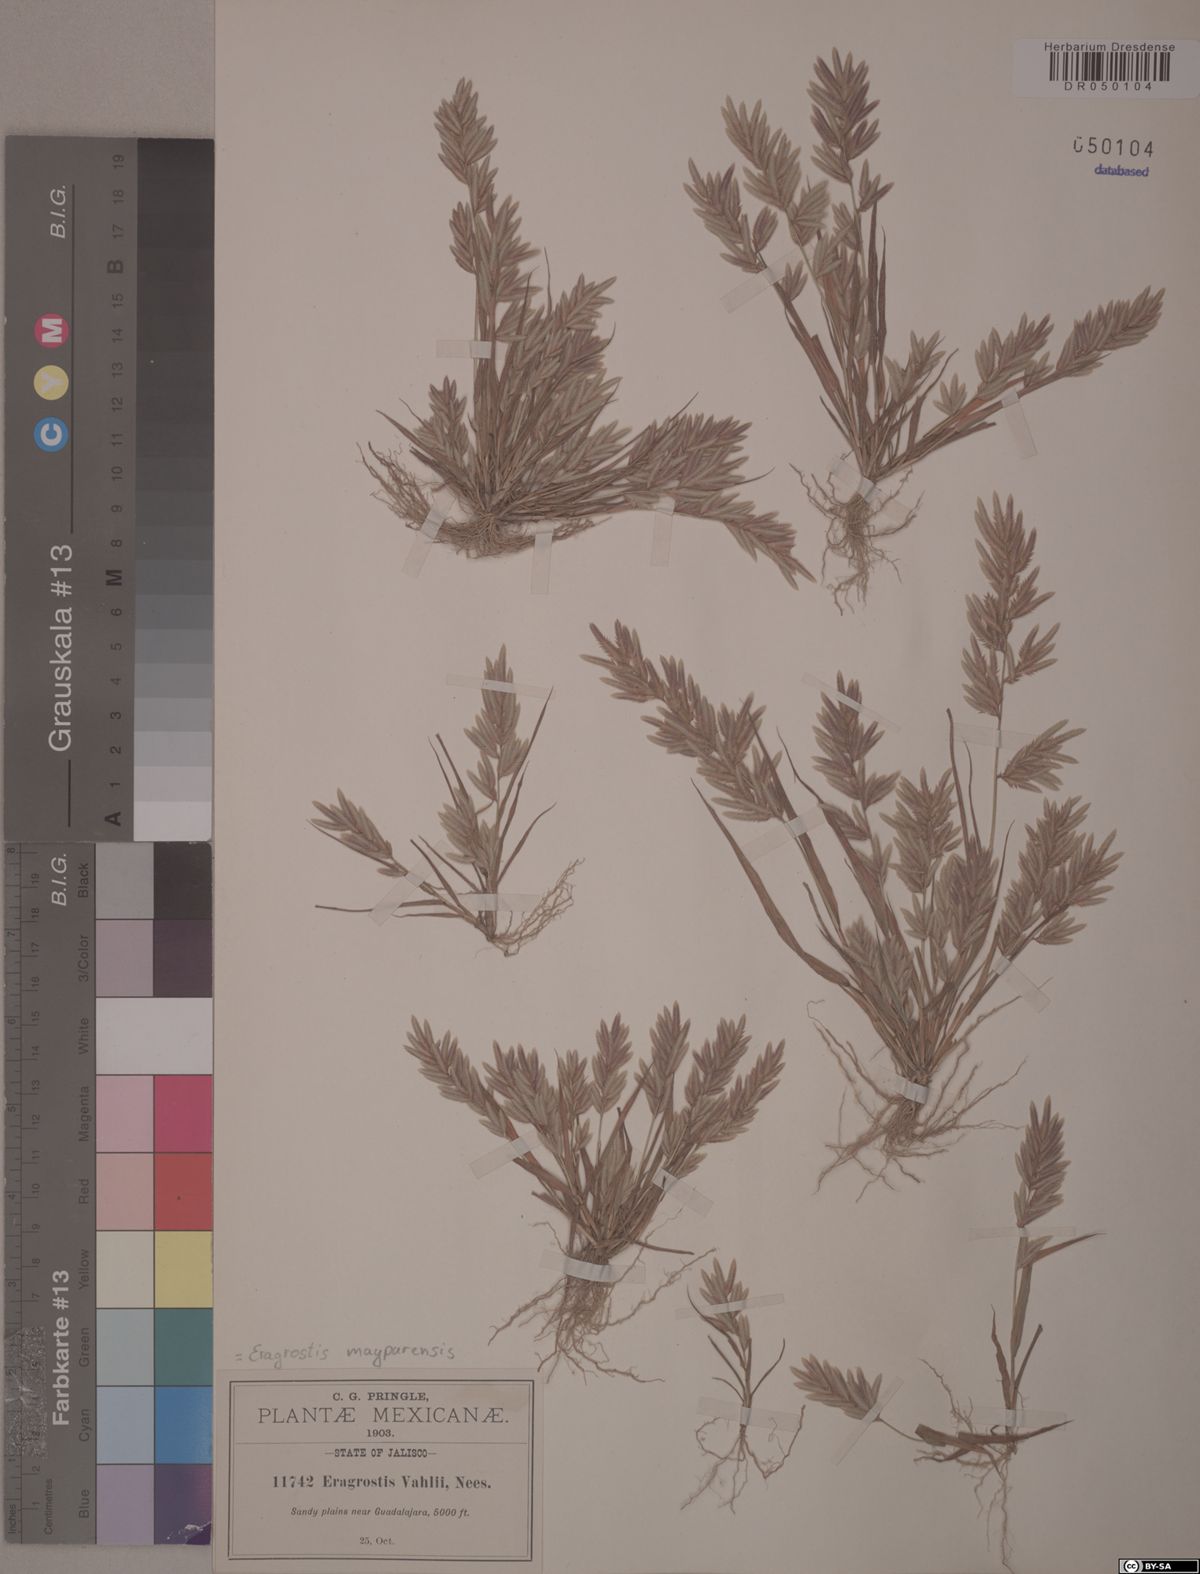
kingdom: Plantae
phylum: Tracheophyta
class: Liliopsida
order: Poales
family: Poaceae
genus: Eragrostis
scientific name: Eragrostis maypurensis
